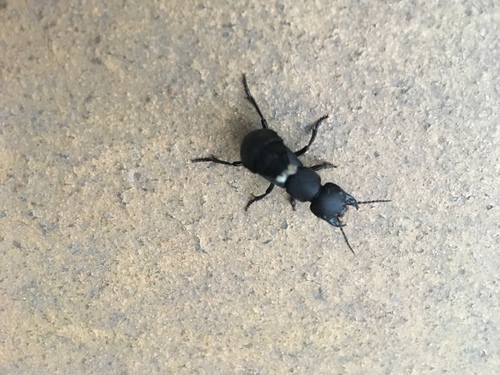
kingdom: Animalia
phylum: Arthropoda
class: Insecta
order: Coleoptera
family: Staphylinidae
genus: Ocypus
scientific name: Ocypus
